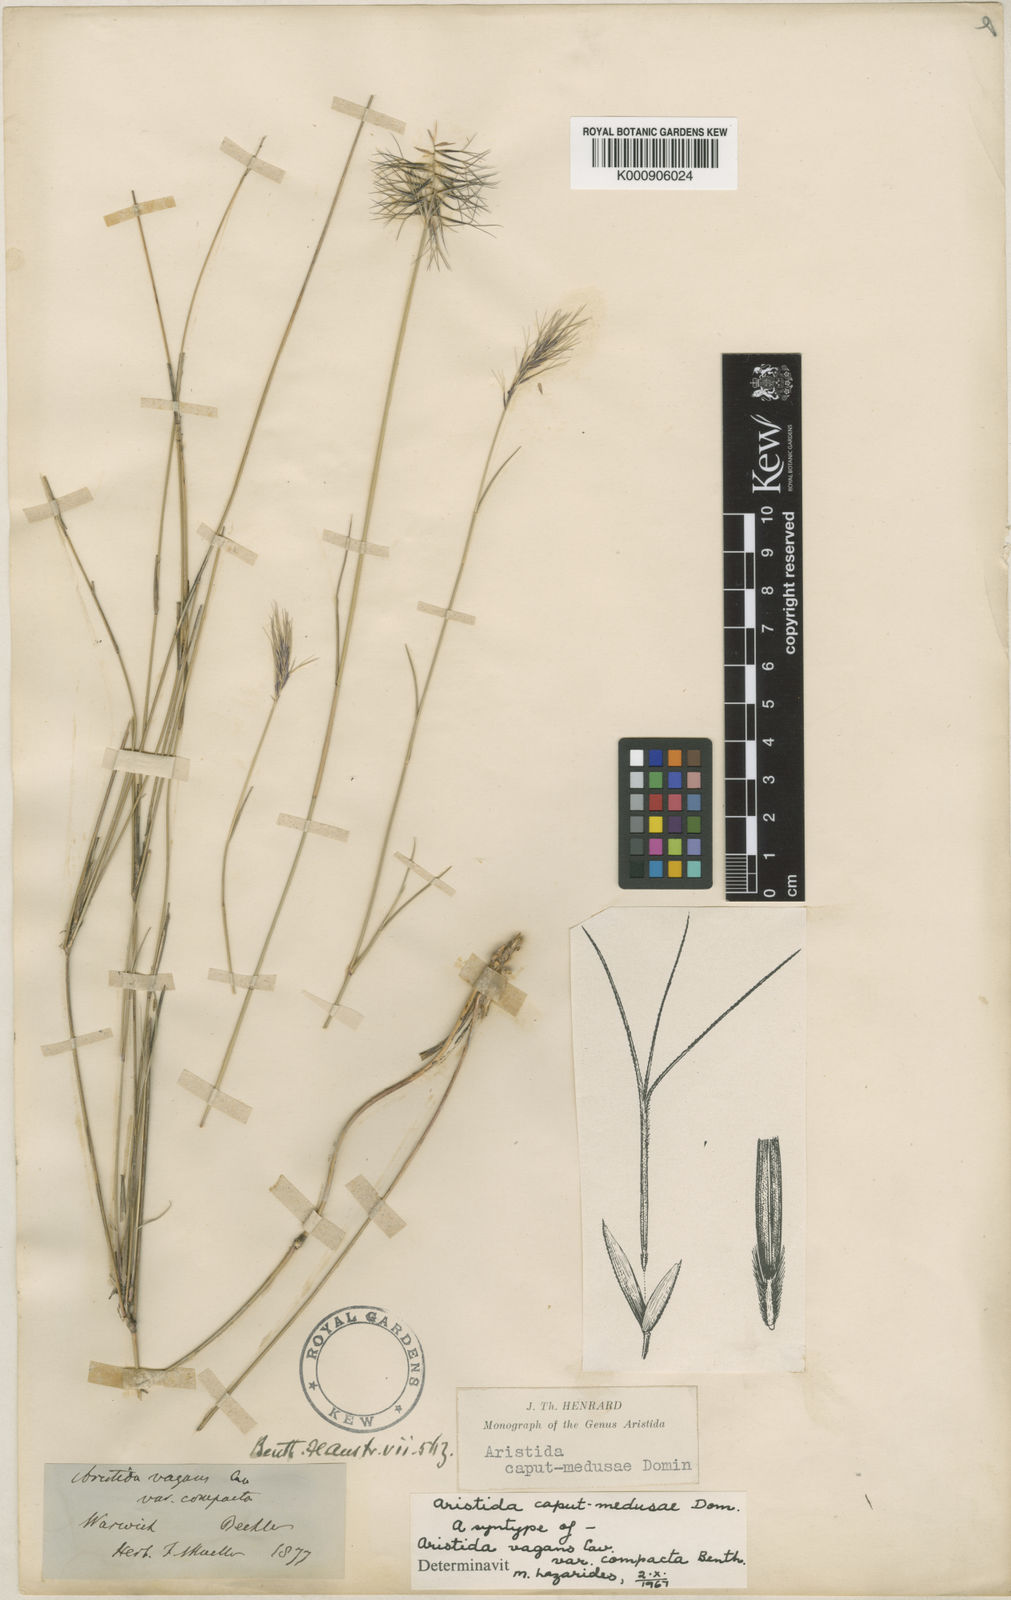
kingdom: Plantae
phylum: Tracheophyta
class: Liliopsida
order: Poales
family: Poaceae
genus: Aristida
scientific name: Aristida caput-medusae
